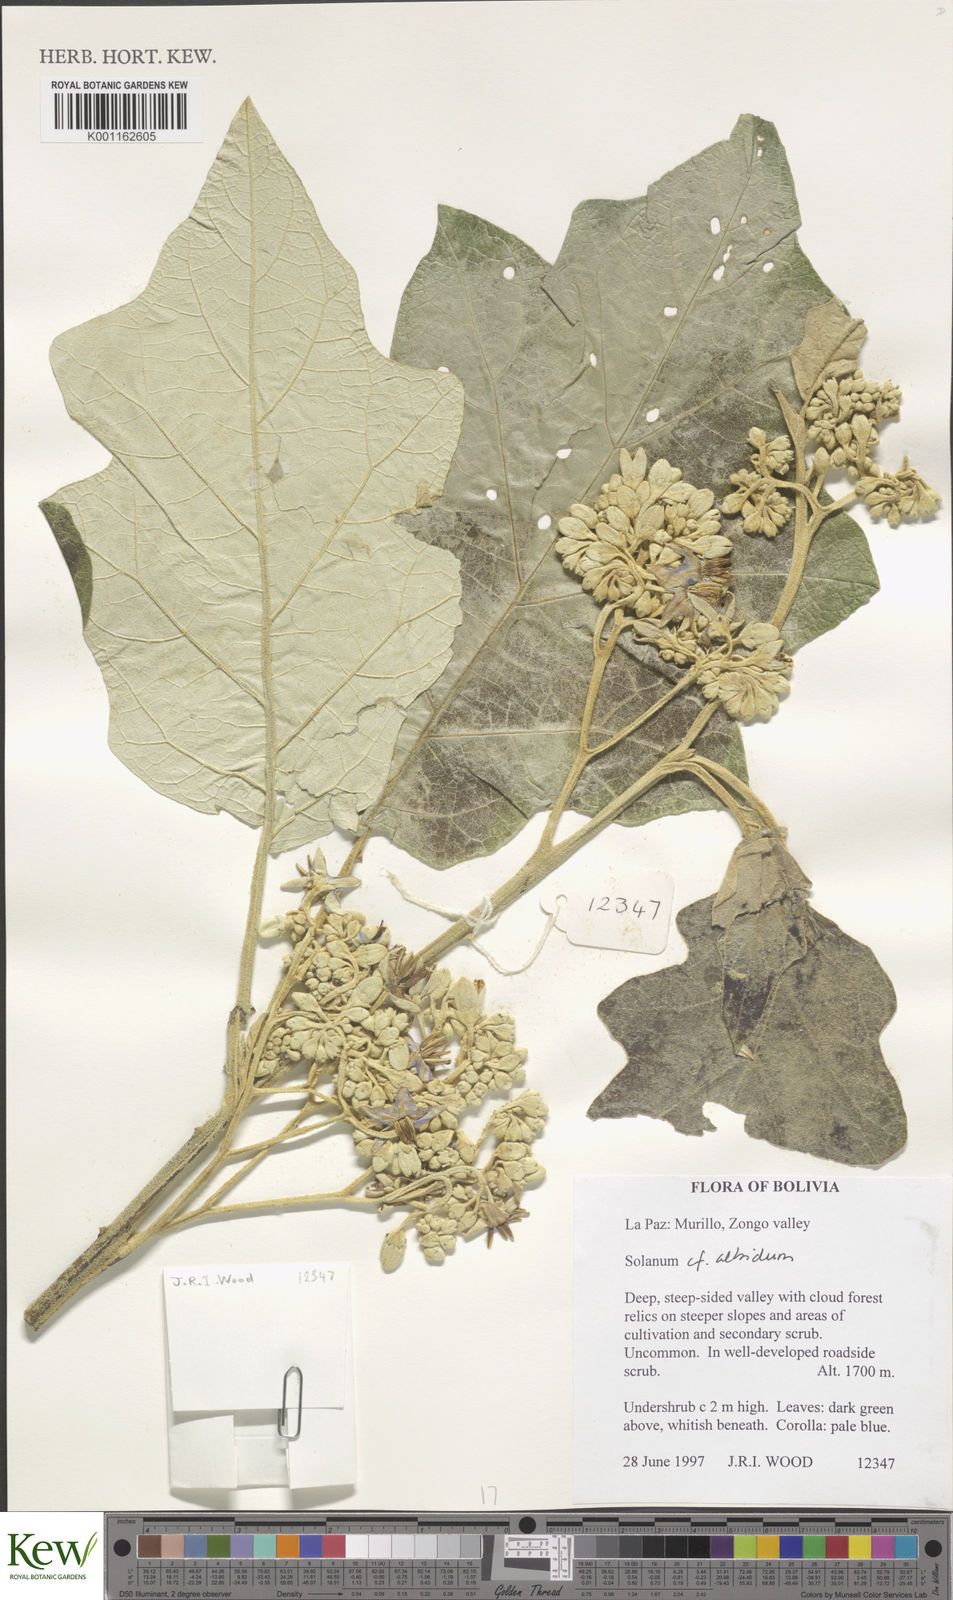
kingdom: Plantae
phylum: Tracheophyta
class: Magnoliopsida
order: Solanales
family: Solanaceae
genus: Solanum
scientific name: Solanum albidum
